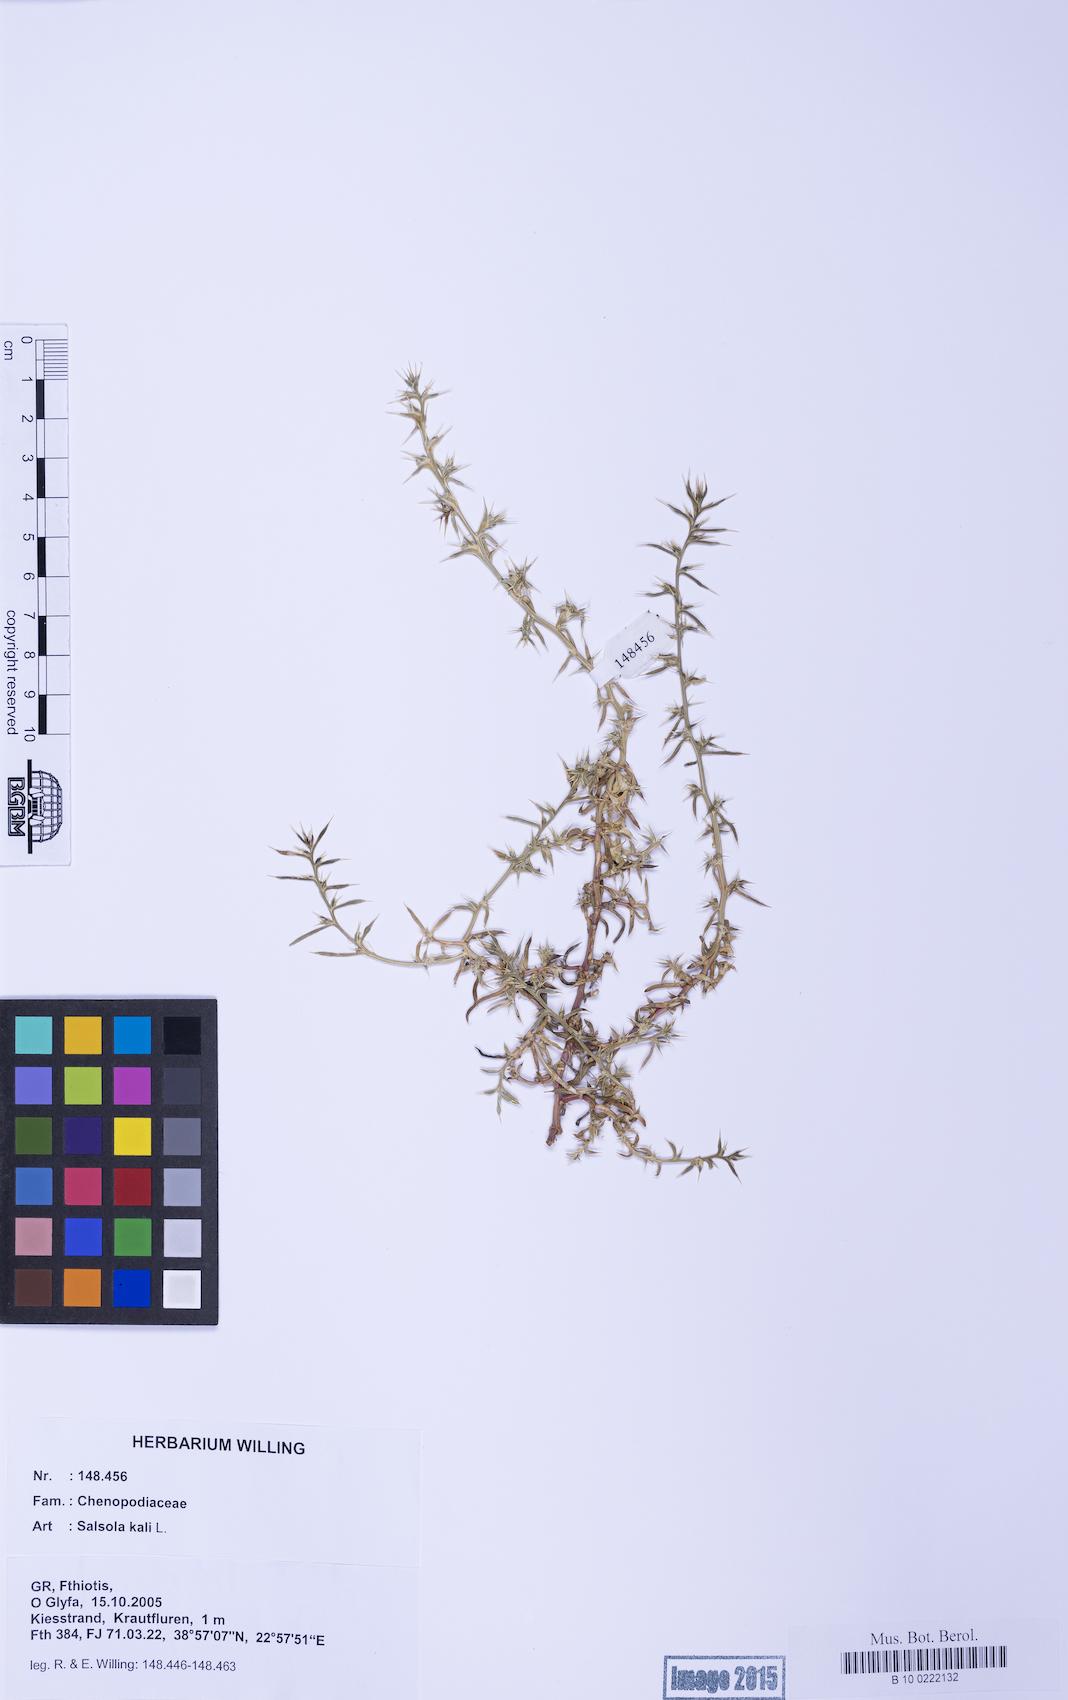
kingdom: Plantae
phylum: Tracheophyta
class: Magnoliopsida
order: Caryophyllales
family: Amaranthaceae
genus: Salsola
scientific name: Salsola kali
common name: Saltwort
